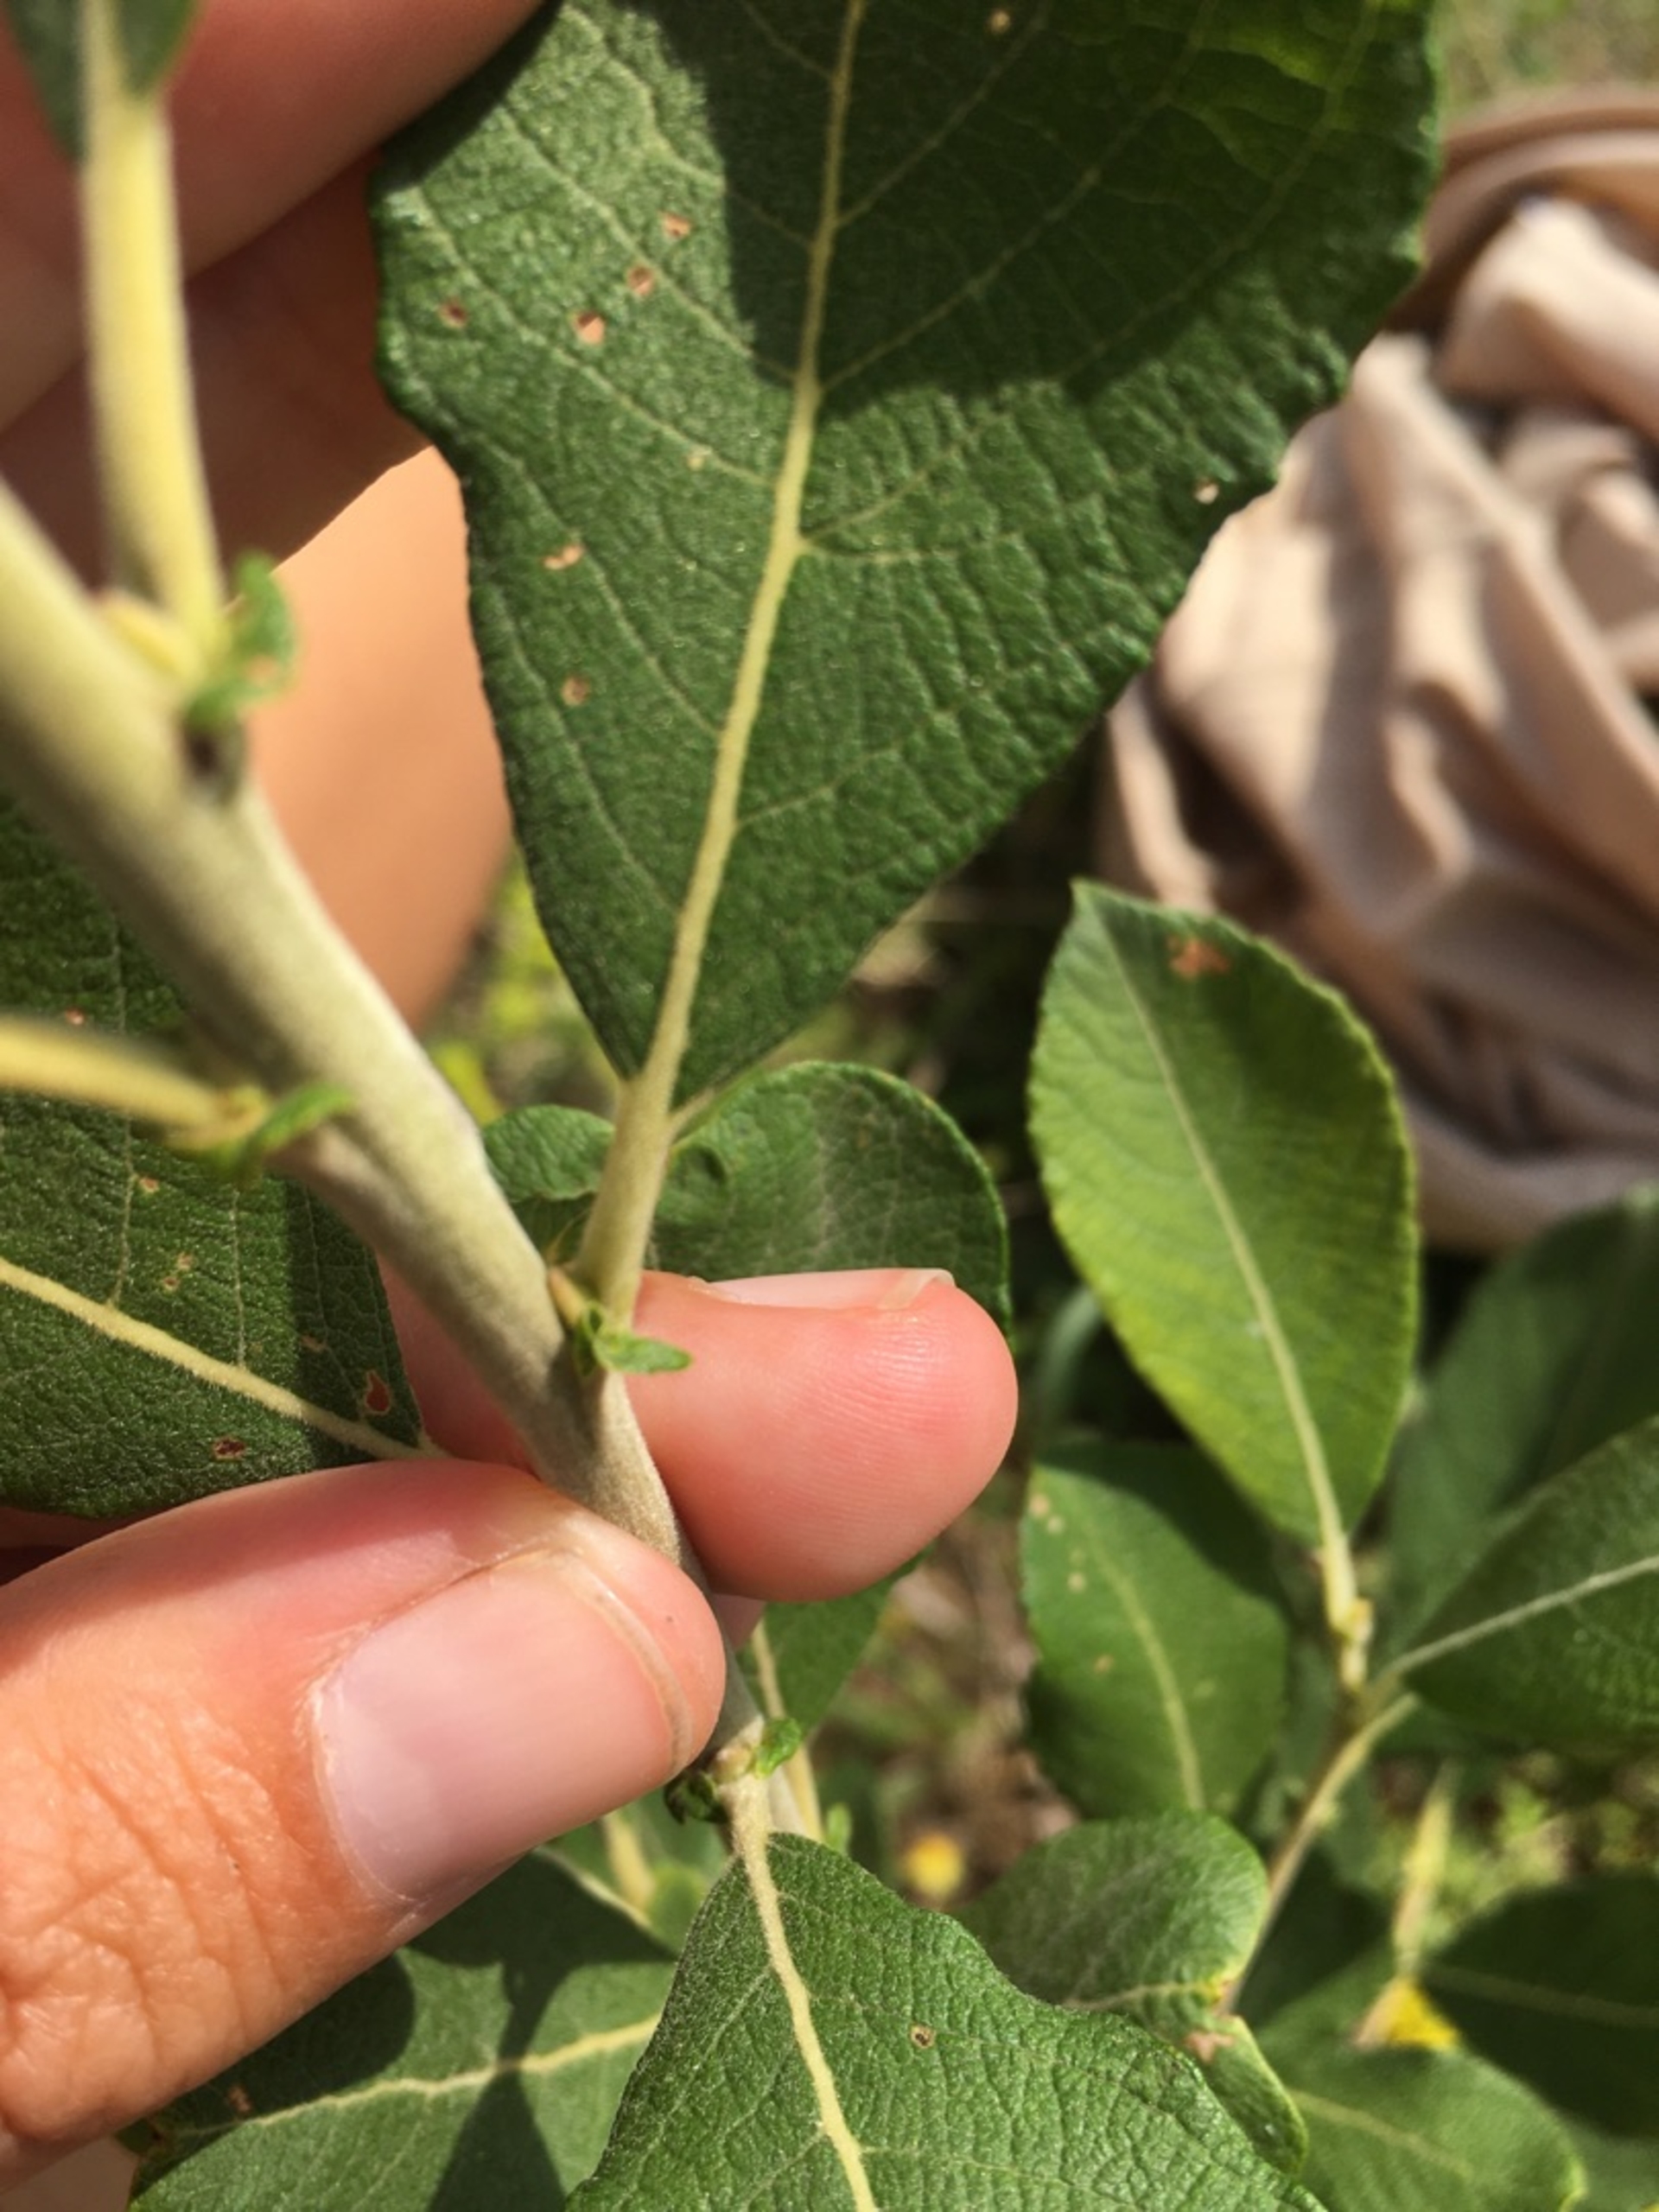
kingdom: Plantae
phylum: Tracheophyta
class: Magnoliopsida
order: Malpighiales
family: Salicaceae
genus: Salix
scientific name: Salix cinerea
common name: Grå-pil
